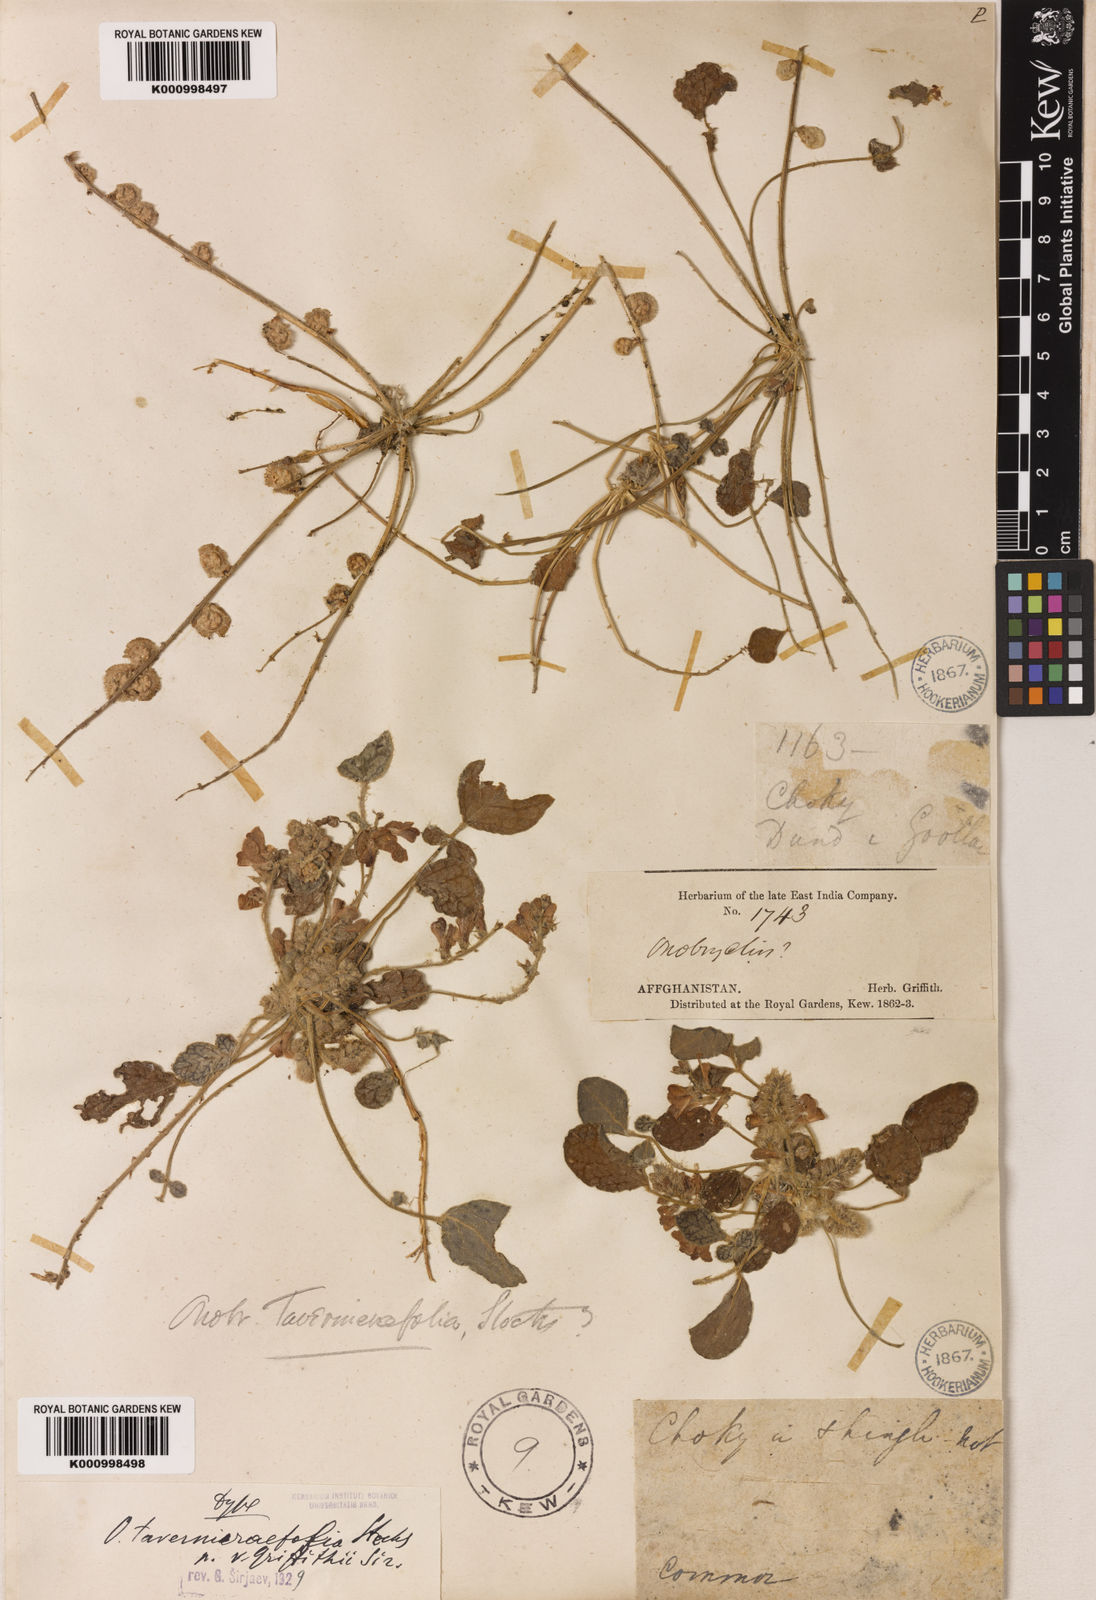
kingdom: Plantae
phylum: Tracheophyta
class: Magnoliopsida
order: Fabales
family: Fabaceae
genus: Onobrychis
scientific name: Onobrychis tavernierifolia
